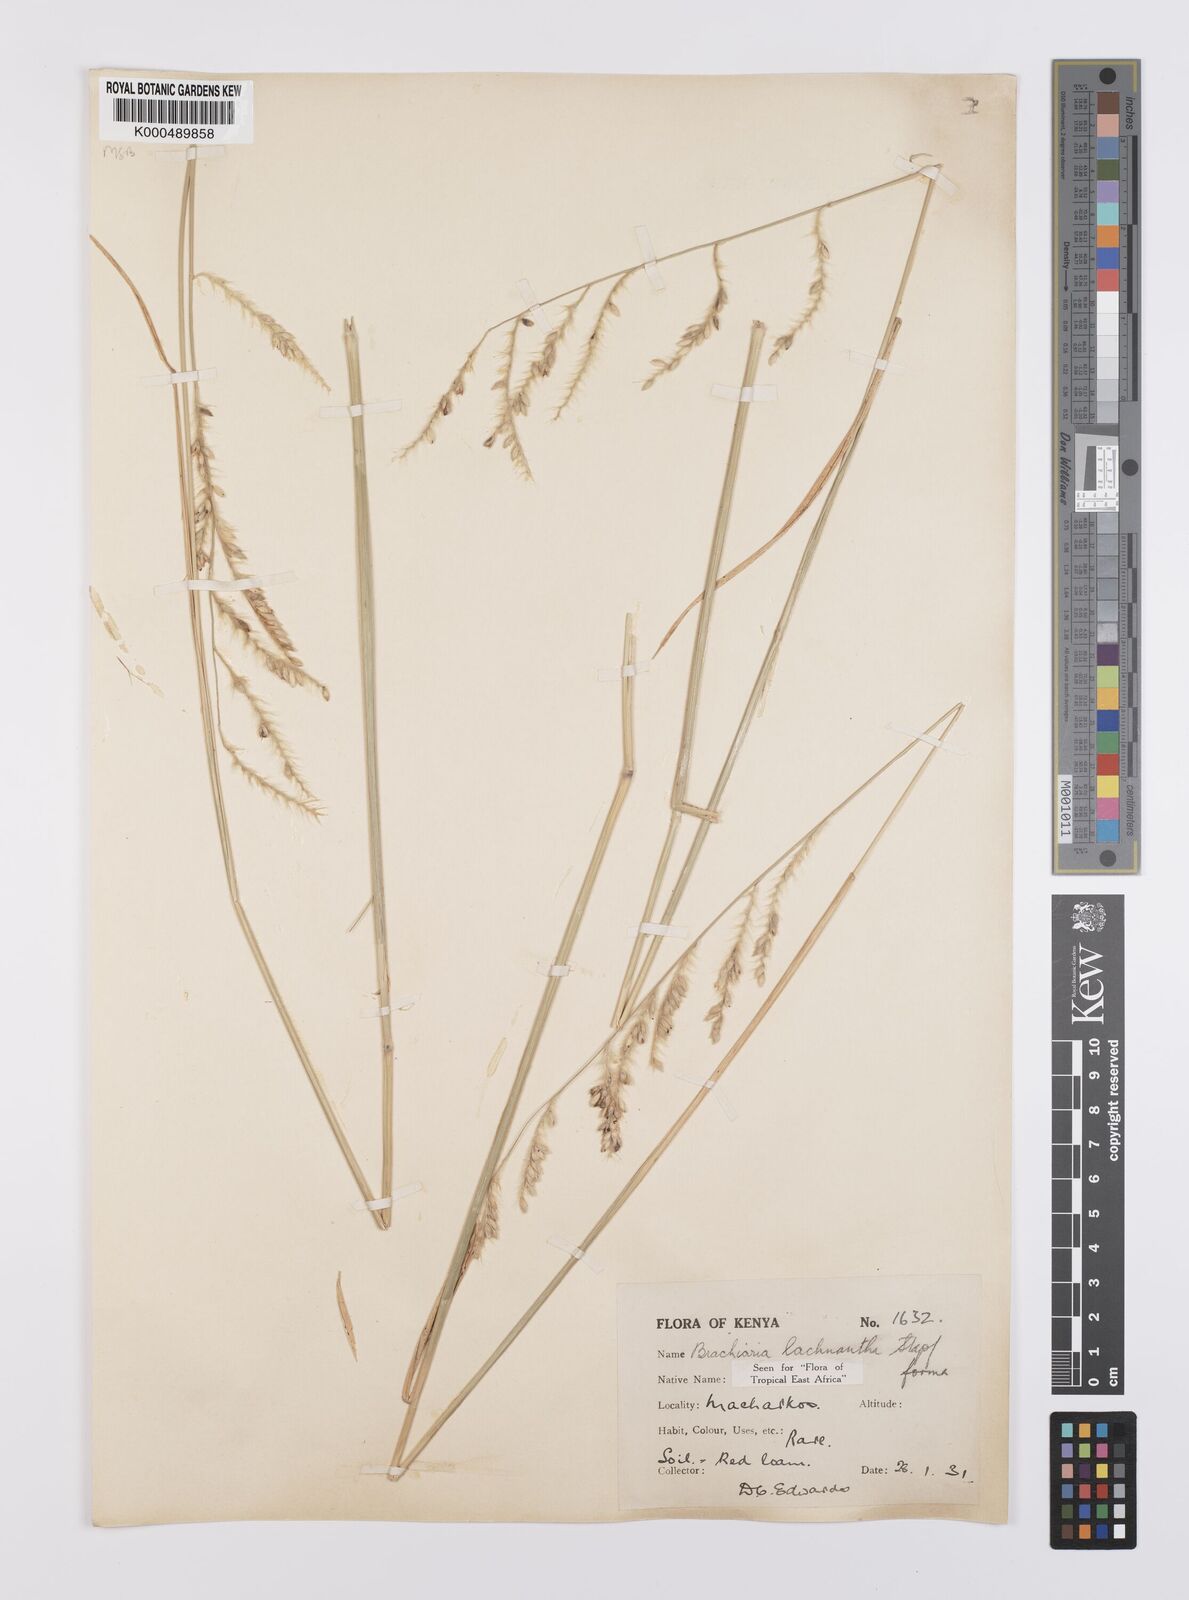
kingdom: Plantae
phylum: Tracheophyta
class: Liliopsida
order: Poales
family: Poaceae
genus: Urochloa
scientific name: Urochloa lachnantha
